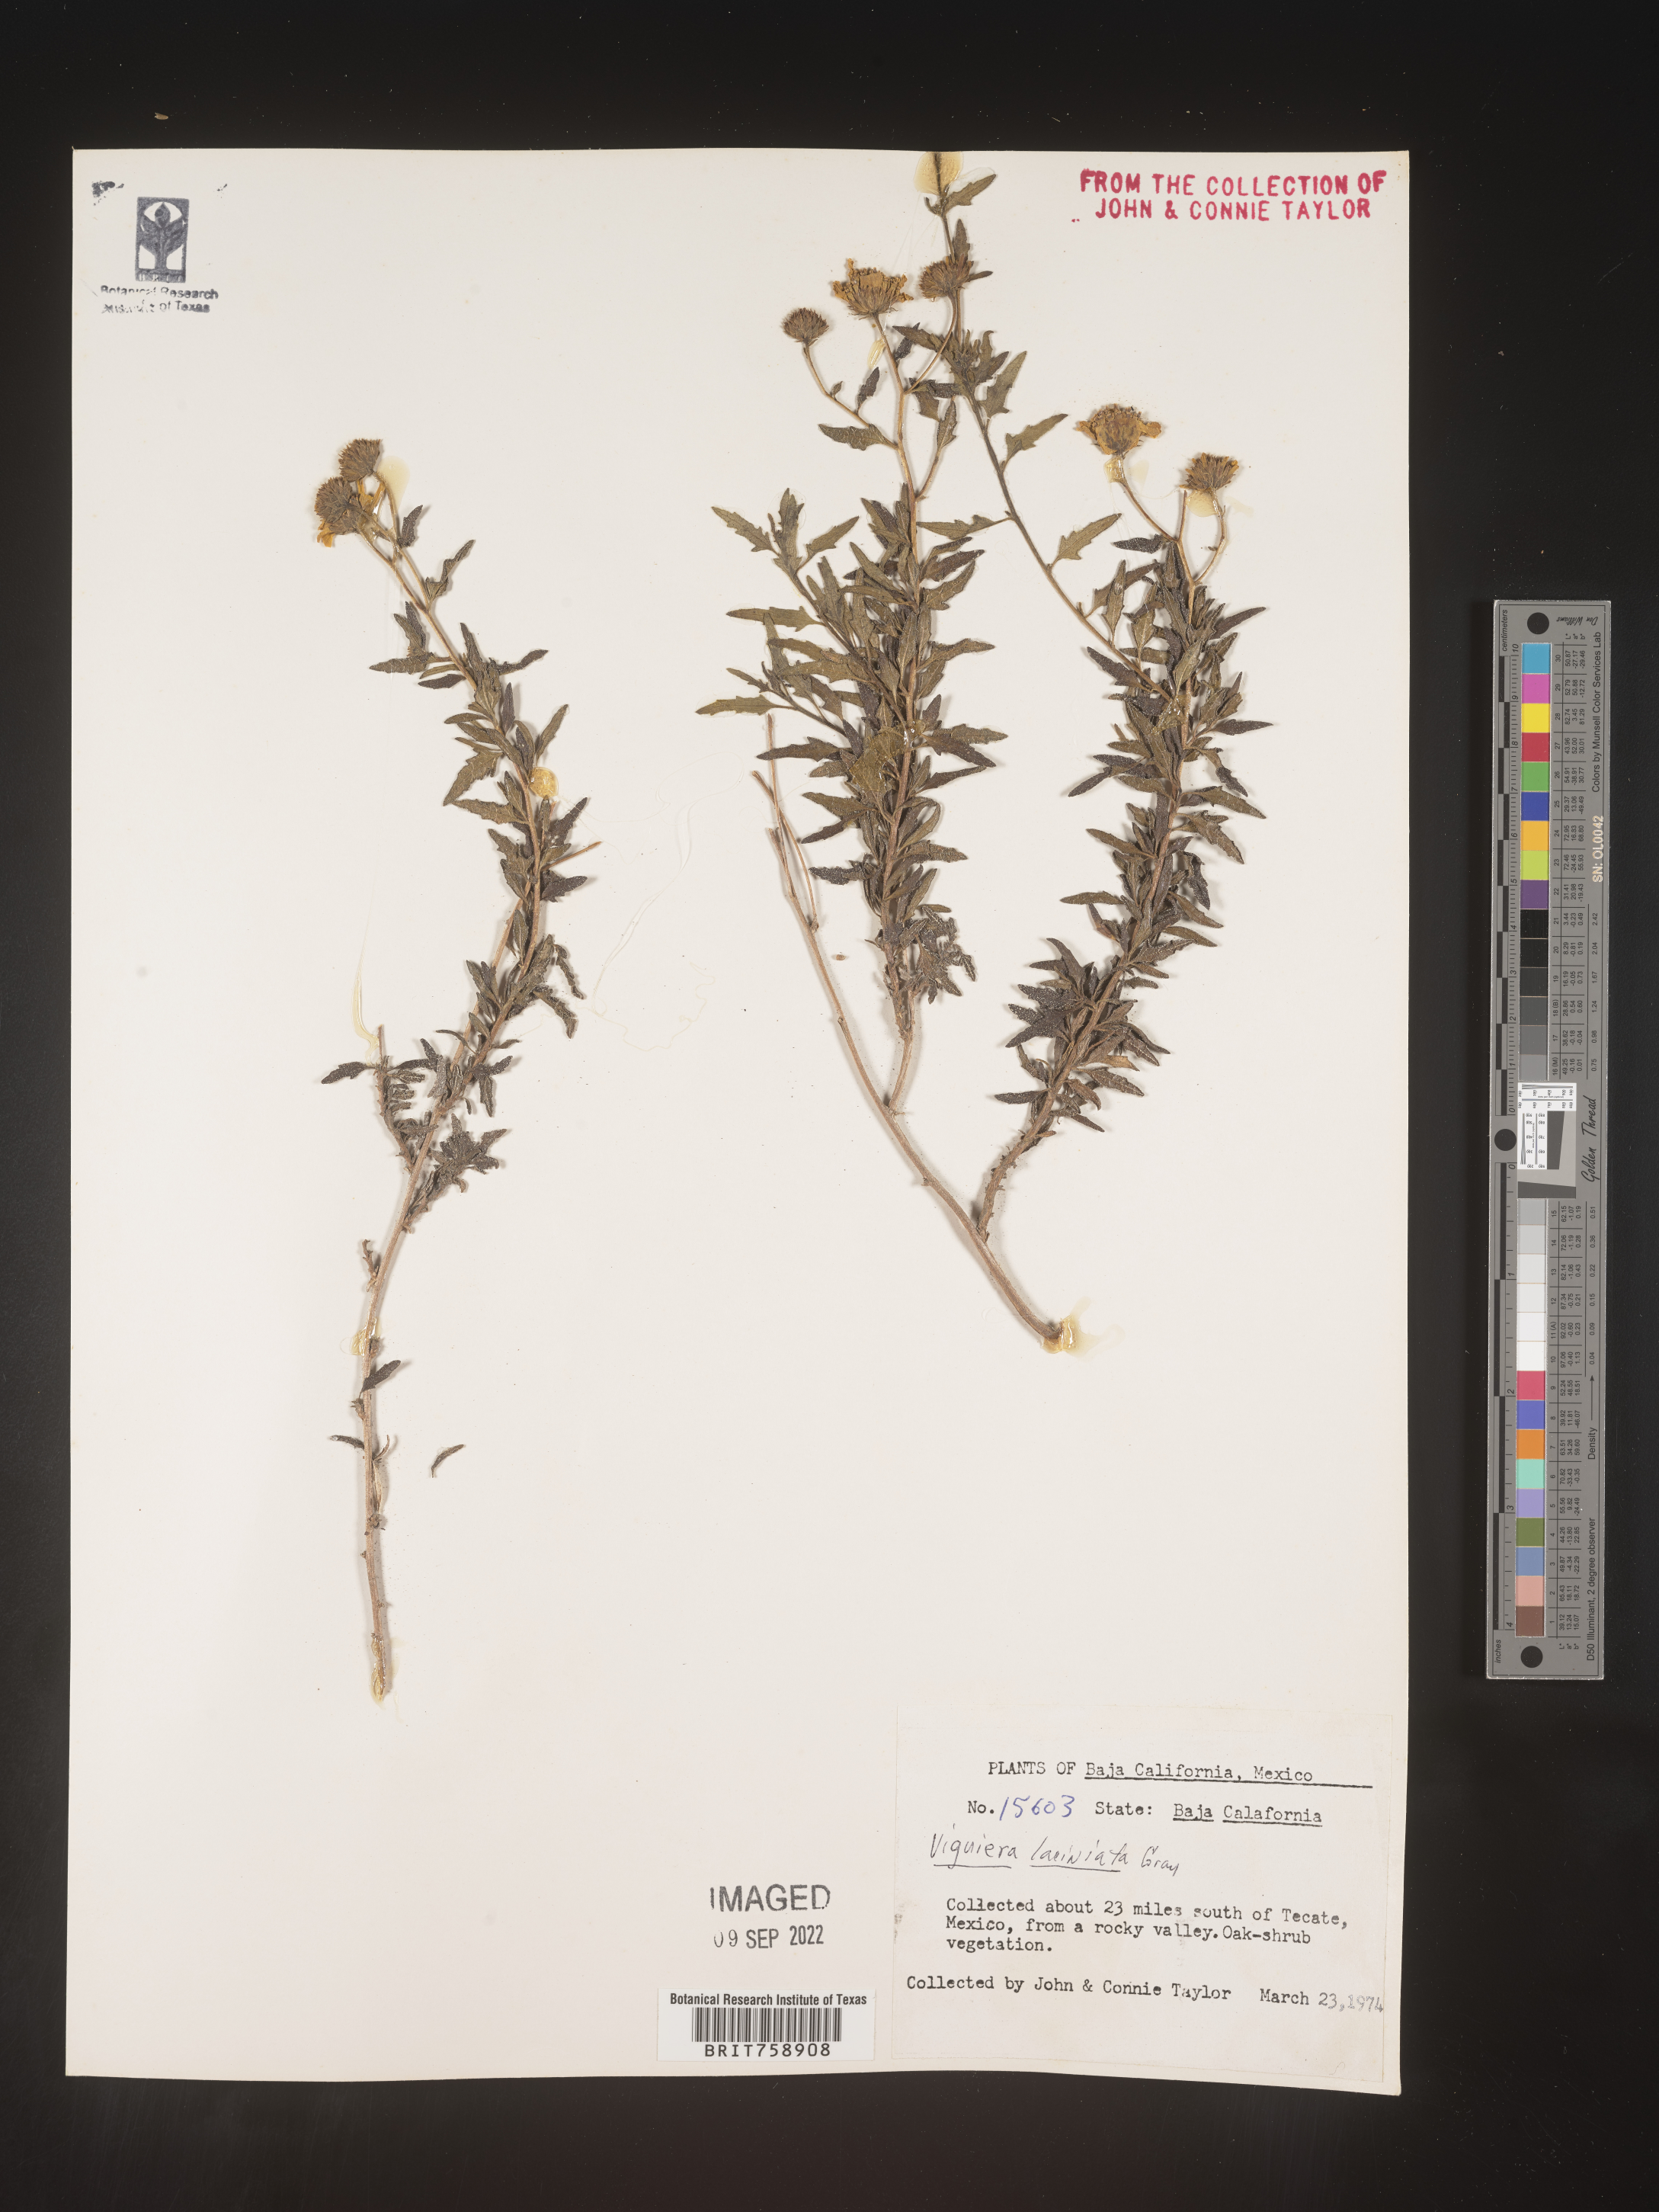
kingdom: Plantae
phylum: Tracheophyta
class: Magnoliopsida
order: Asterales
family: Asteraceae
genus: Viguiera
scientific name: Viguiera
